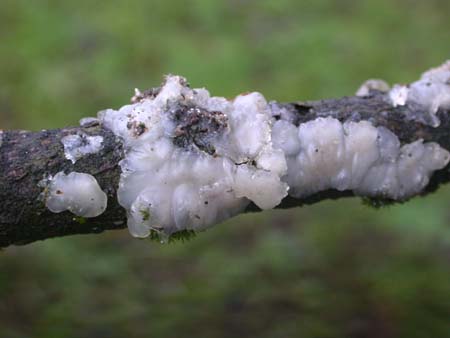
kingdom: Fungi
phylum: Basidiomycota
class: Agaricomycetes
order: Auriculariales
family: Auriculariaceae
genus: Exidia
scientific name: Exidia thuretiana
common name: hvidlig bævretop
